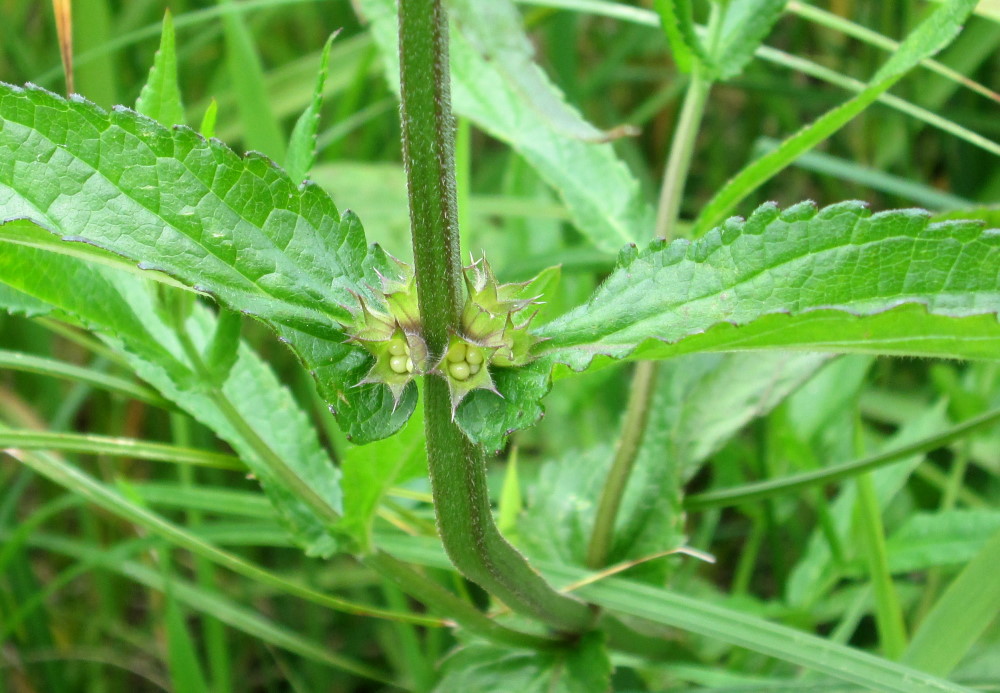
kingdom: Plantae
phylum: Tracheophyta
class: Magnoliopsida
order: Lamiales
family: Lamiaceae
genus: Stachys
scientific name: Stachys palustris
